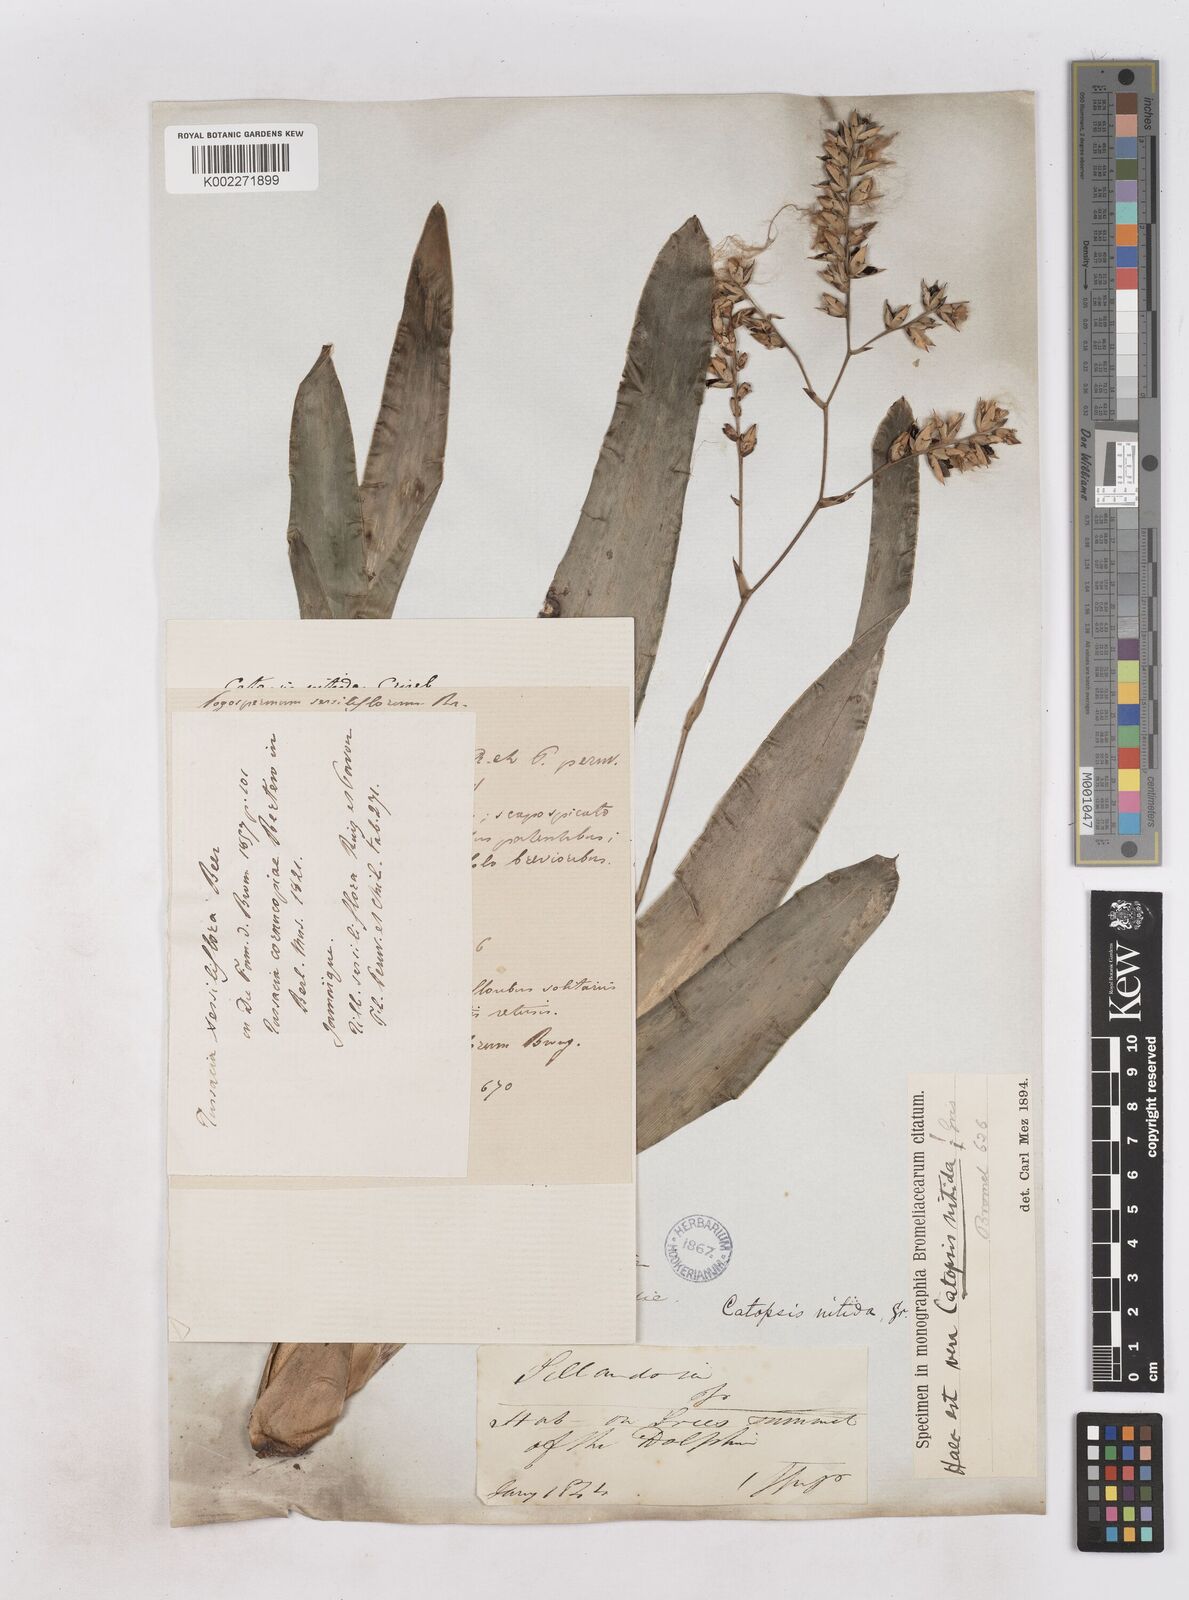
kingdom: Plantae
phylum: Tracheophyta
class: Liliopsida
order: Poales
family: Bromeliaceae
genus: Catopsis
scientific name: Catopsis nitida
